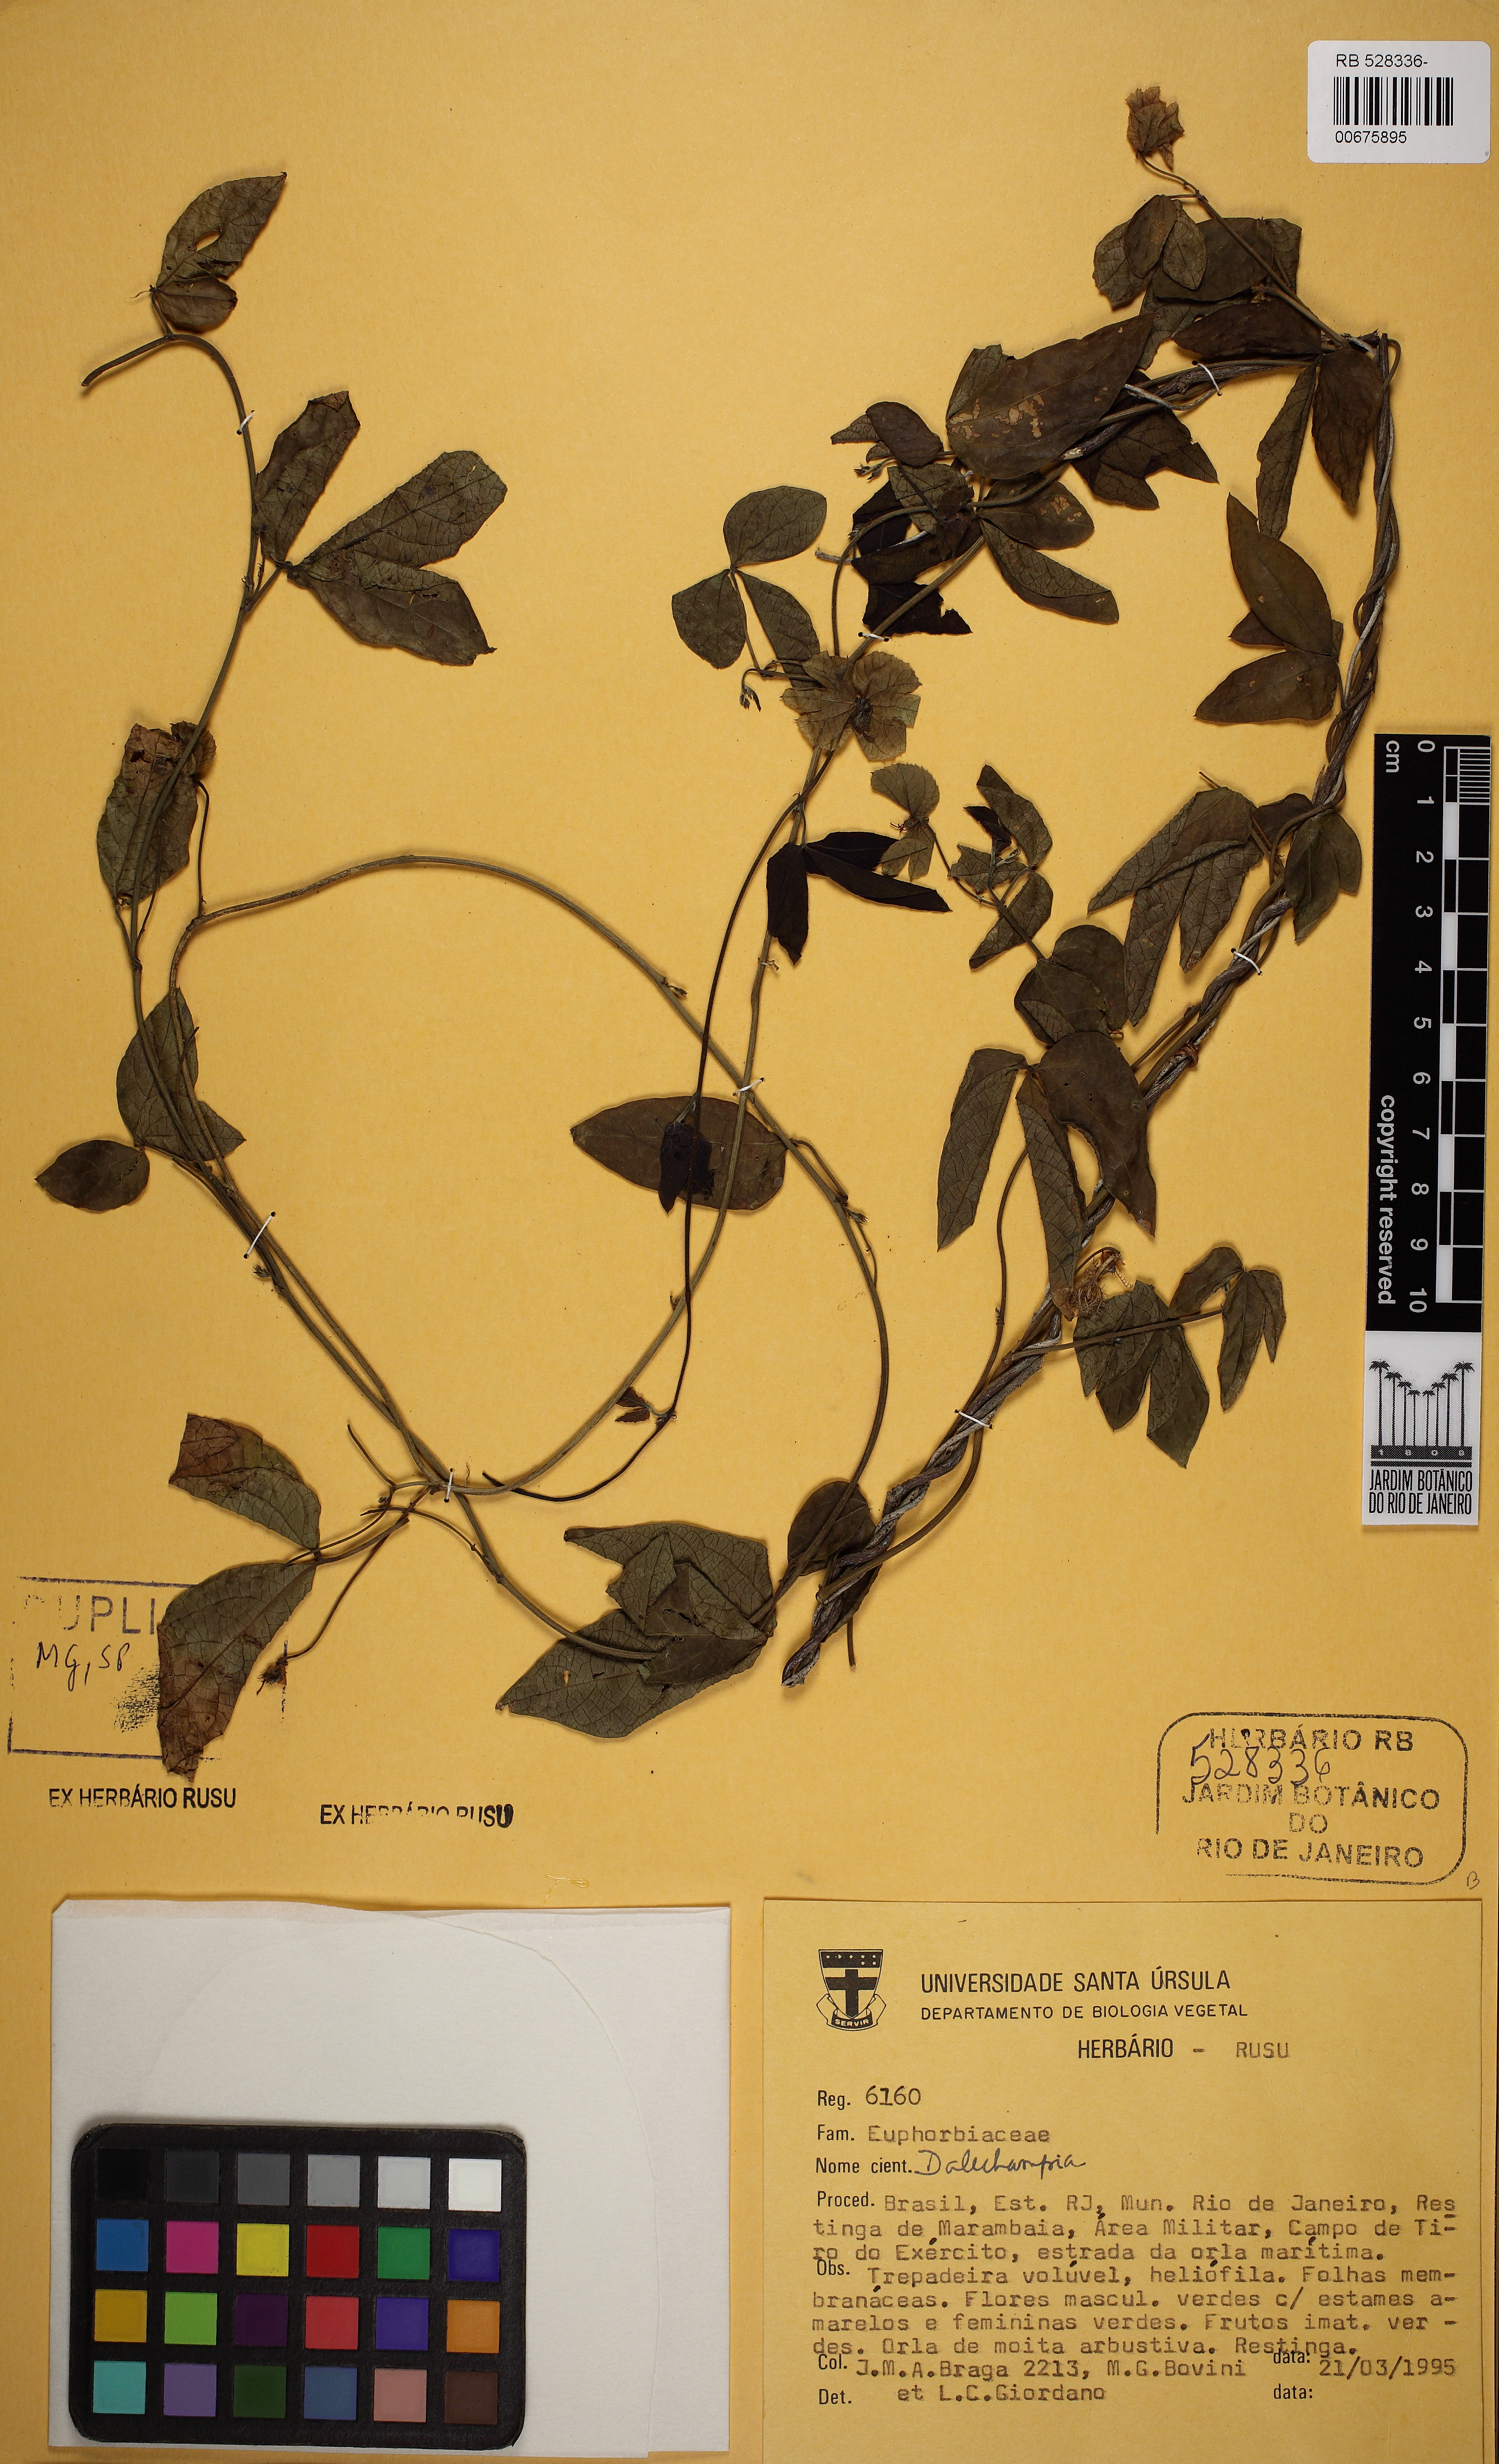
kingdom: Plantae
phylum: Tracheophyta
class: Magnoliopsida
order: Malpighiales
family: Euphorbiaceae
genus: Dalechampia
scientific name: Dalechampia triphylla
